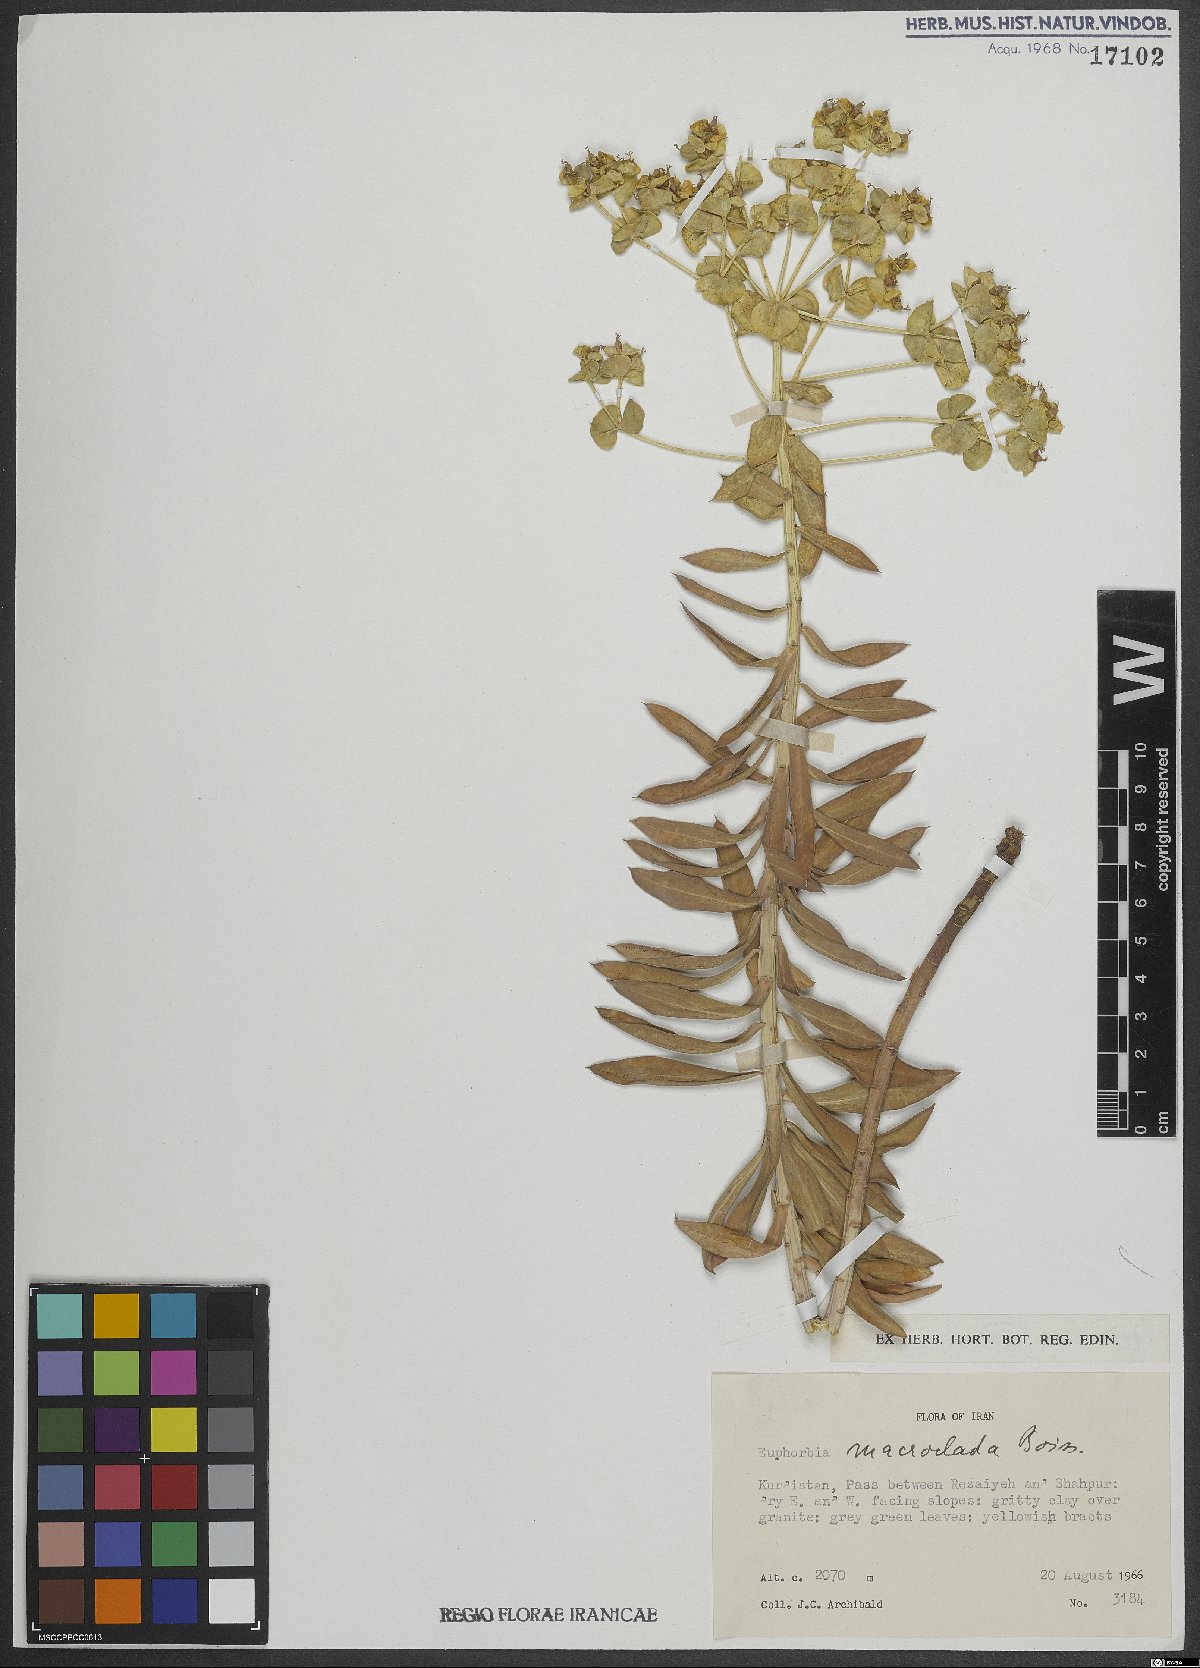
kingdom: Plantae
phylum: Tracheophyta
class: Magnoliopsida
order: Malpighiales
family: Euphorbiaceae
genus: Euphorbia
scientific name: Euphorbia macroclada
